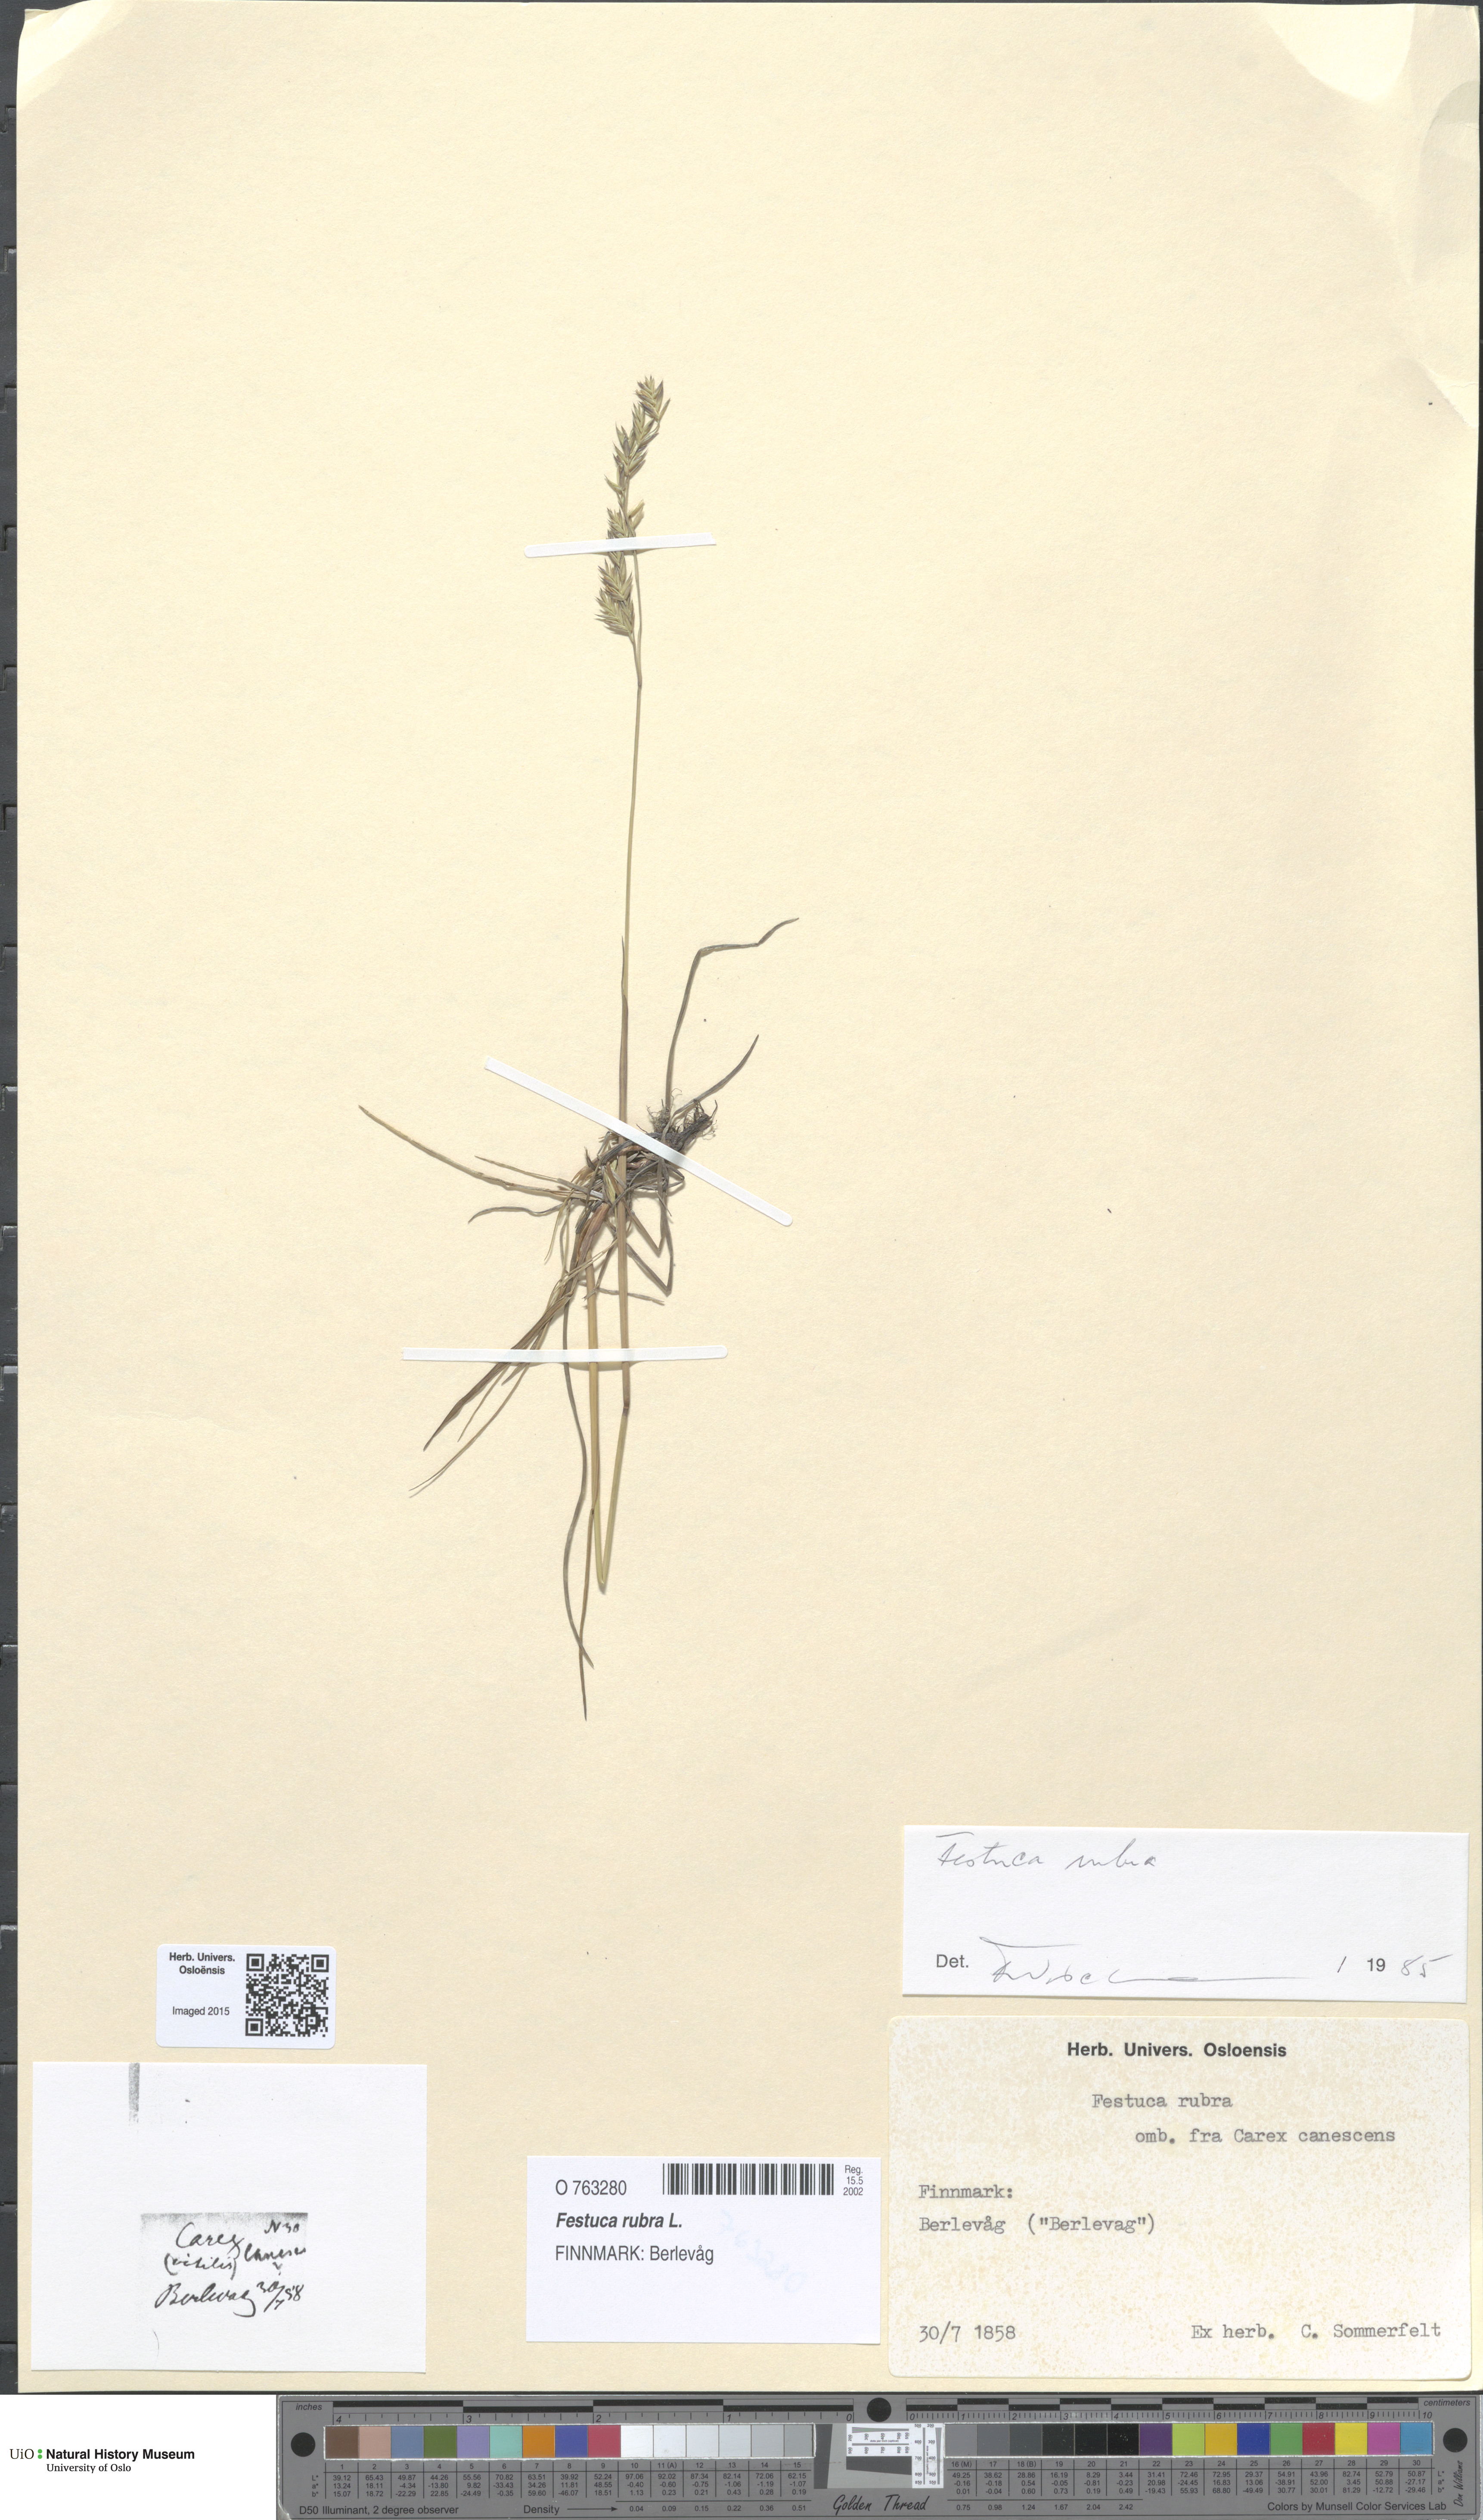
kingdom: Plantae
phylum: Tracheophyta
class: Liliopsida
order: Poales
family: Poaceae
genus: Festuca
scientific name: Festuca rubra
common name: Red fescue
